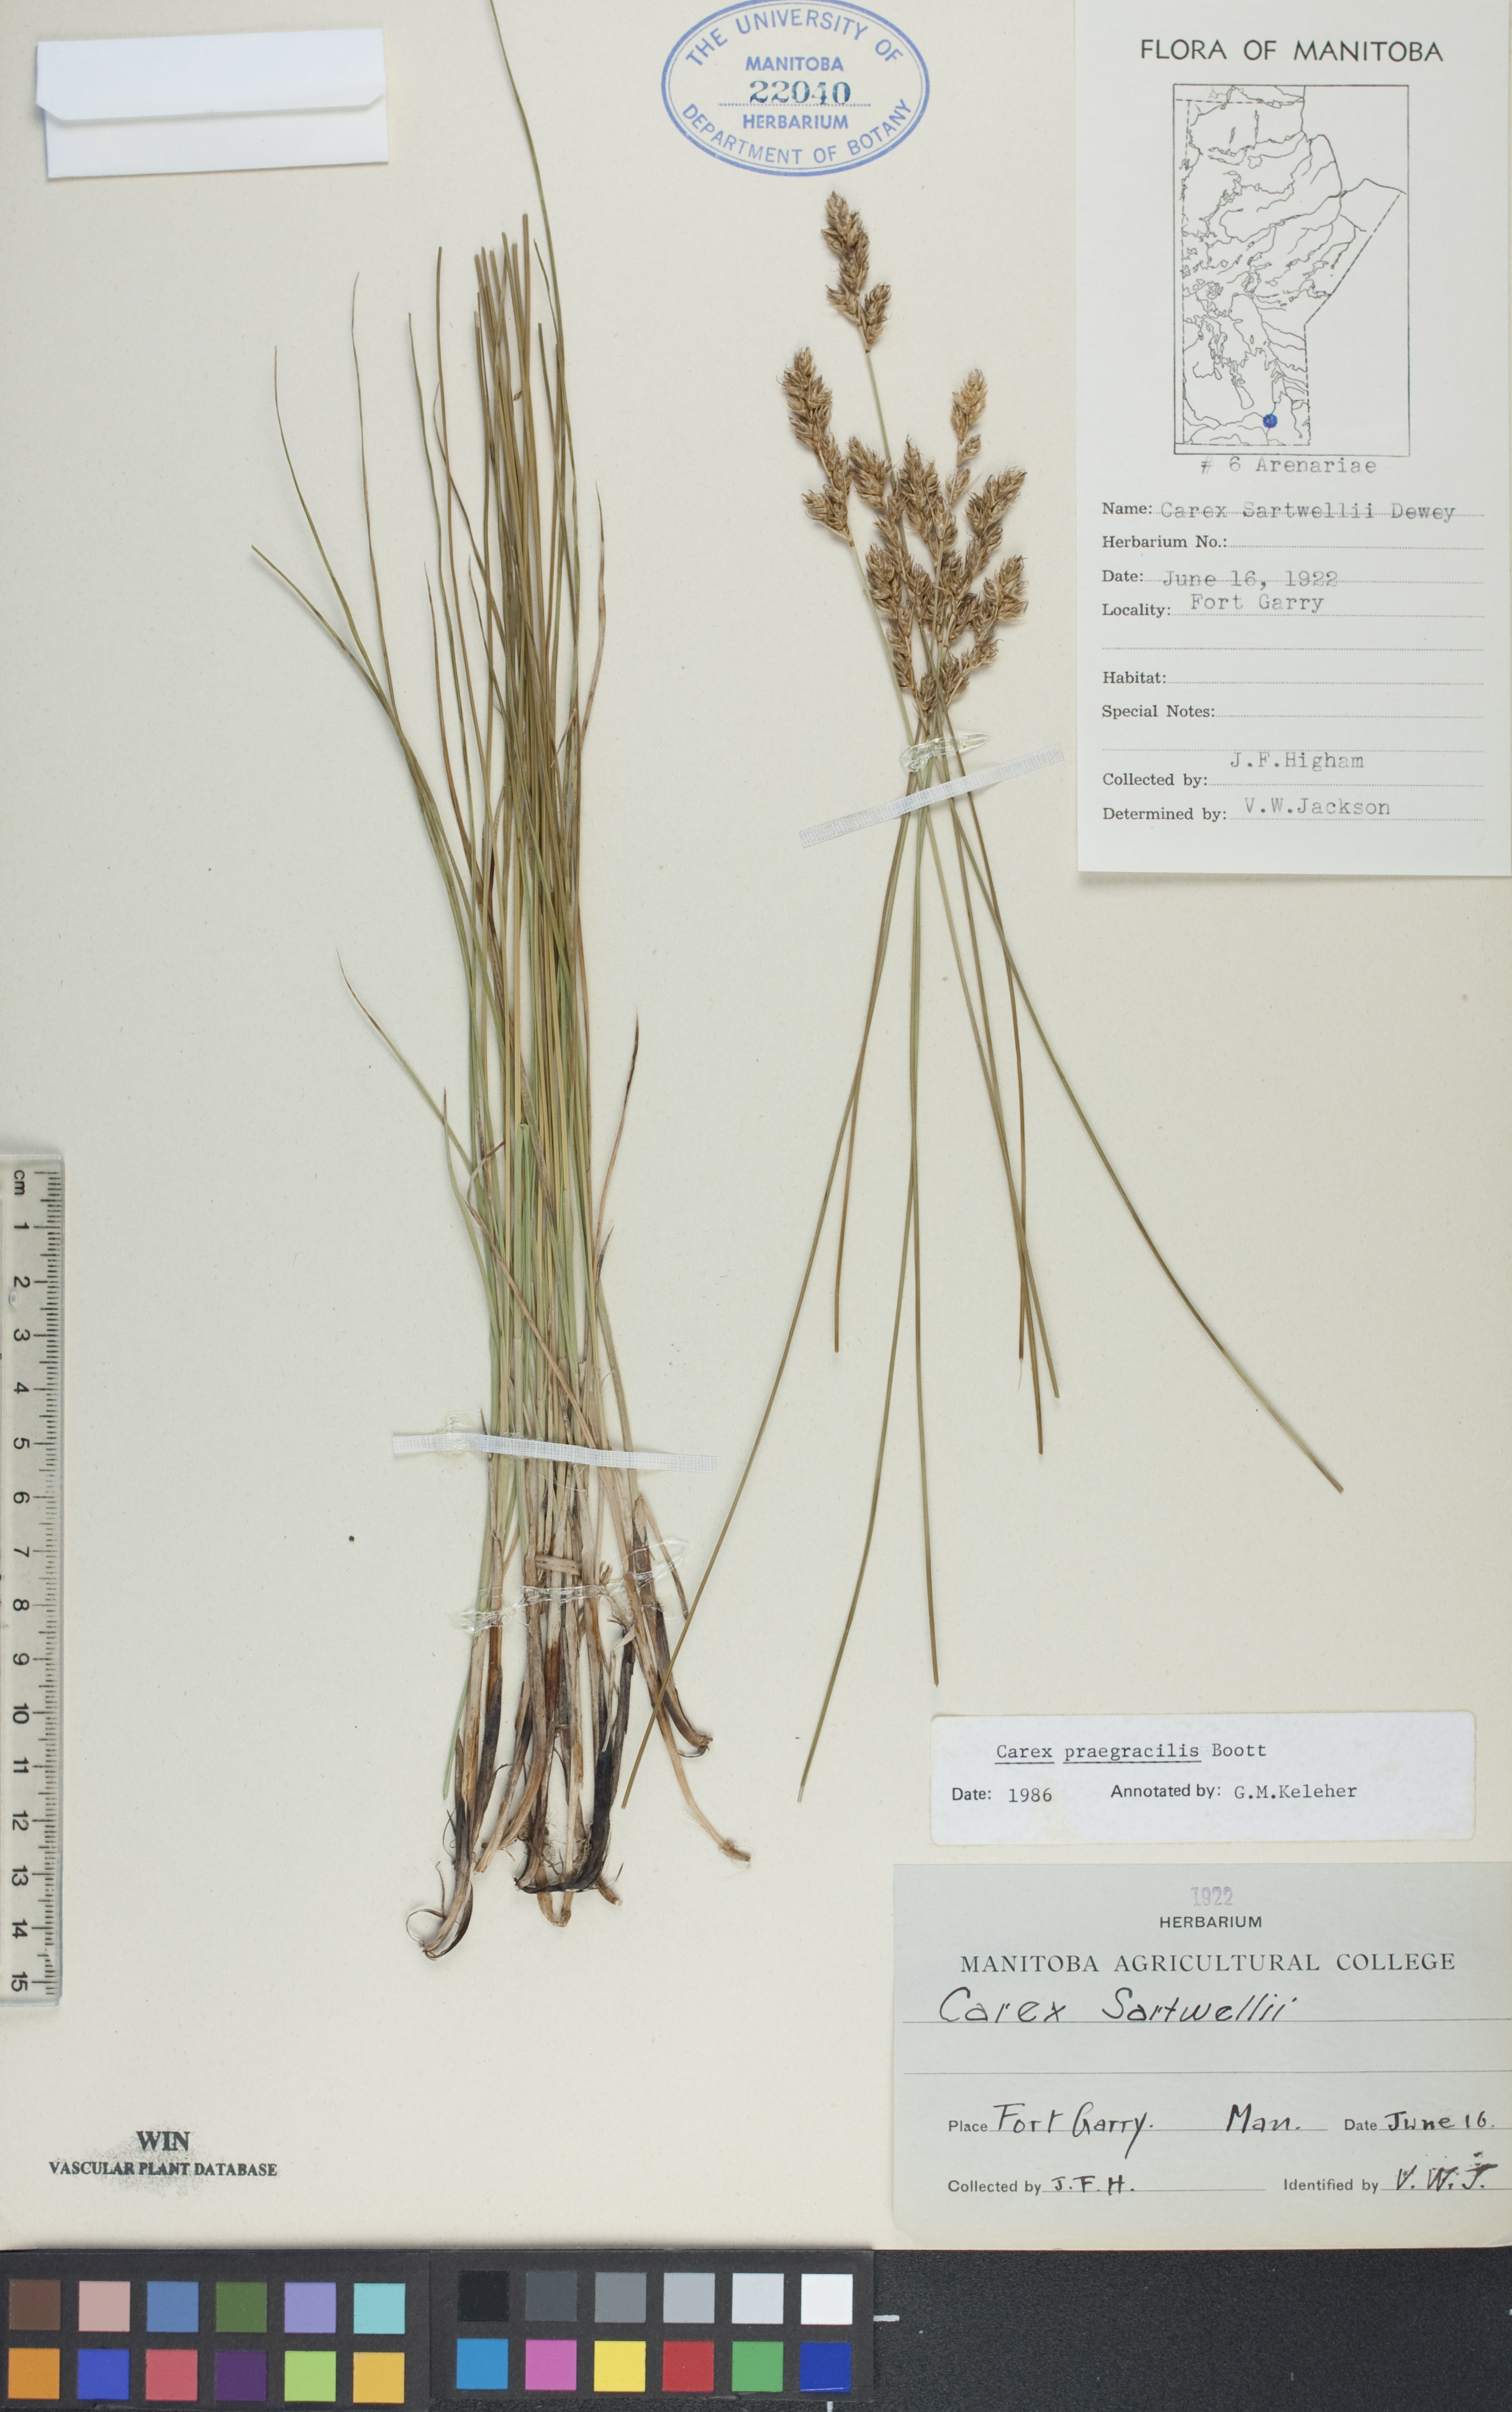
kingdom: Plantae
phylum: Tracheophyta
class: Liliopsida
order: Poales
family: Cyperaceae
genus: Carex
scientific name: Carex praegracilis
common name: Black creeper sedge
